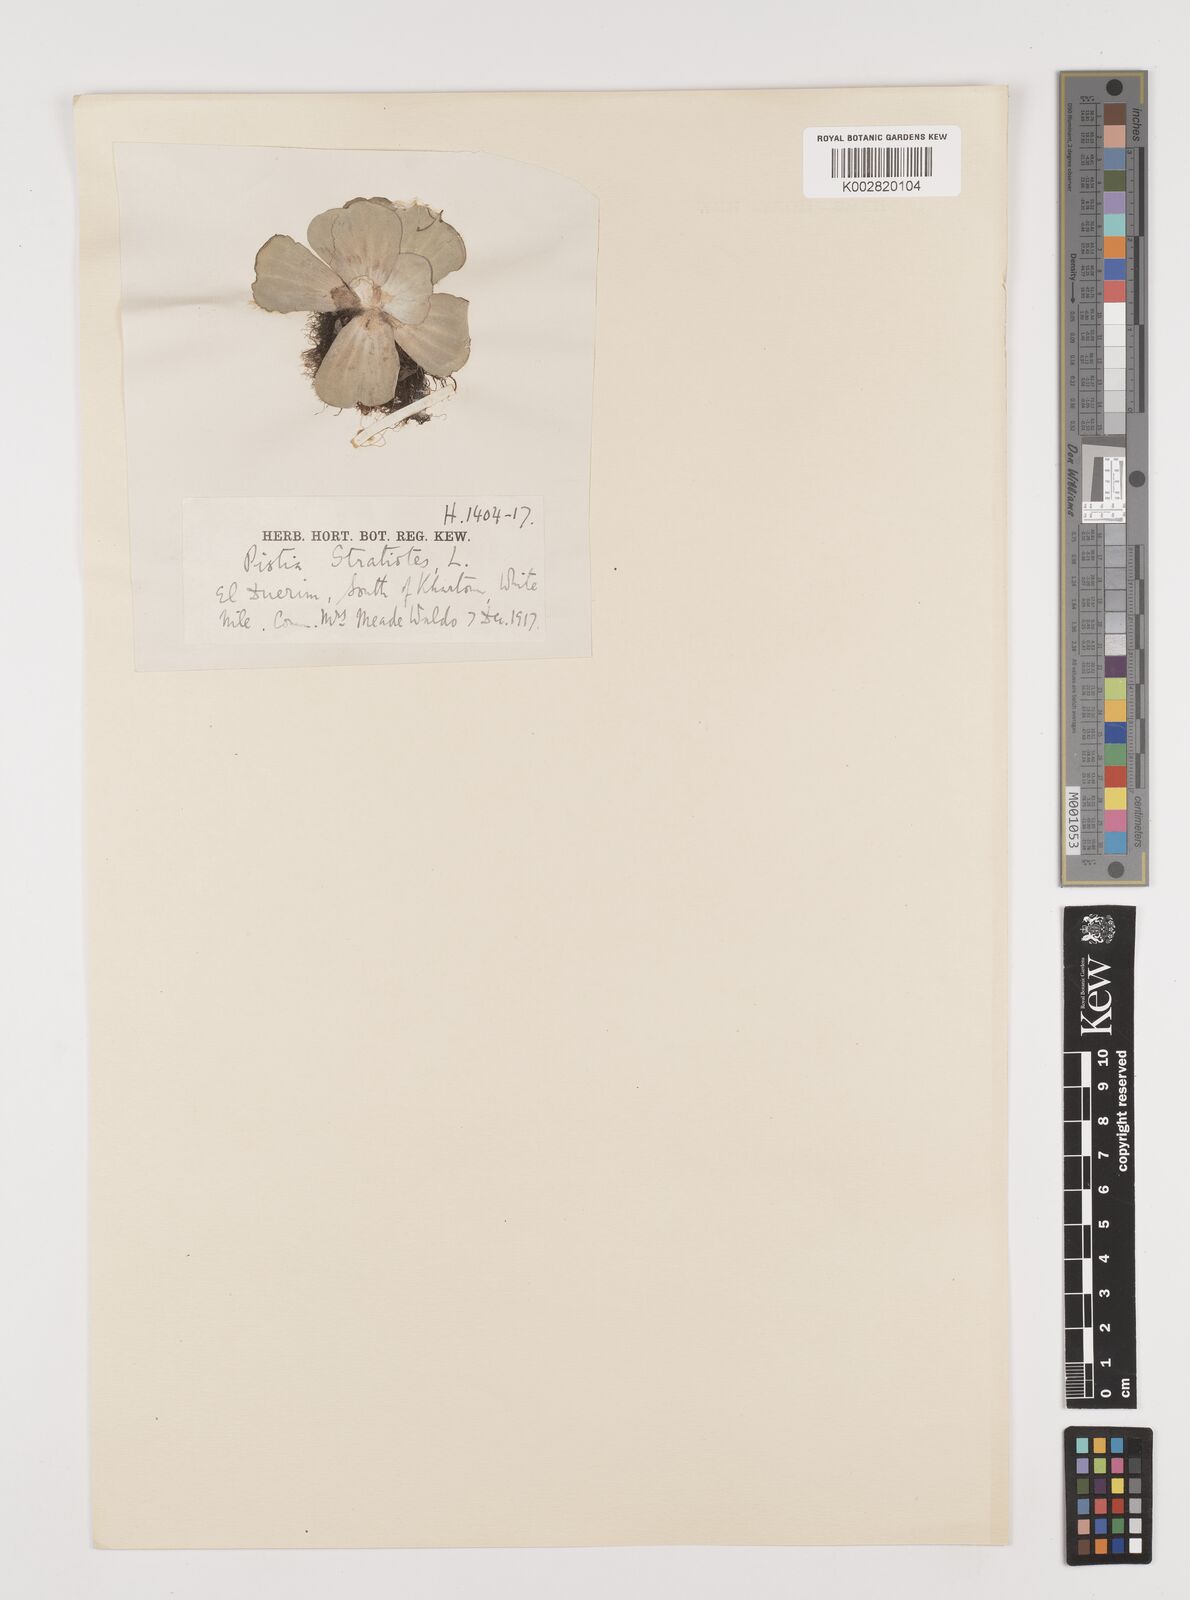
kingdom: Plantae
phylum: Tracheophyta
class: Liliopsida
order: Alismatales
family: Araceae
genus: Pistia
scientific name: Pistia stratiotes
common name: Water lettuce
